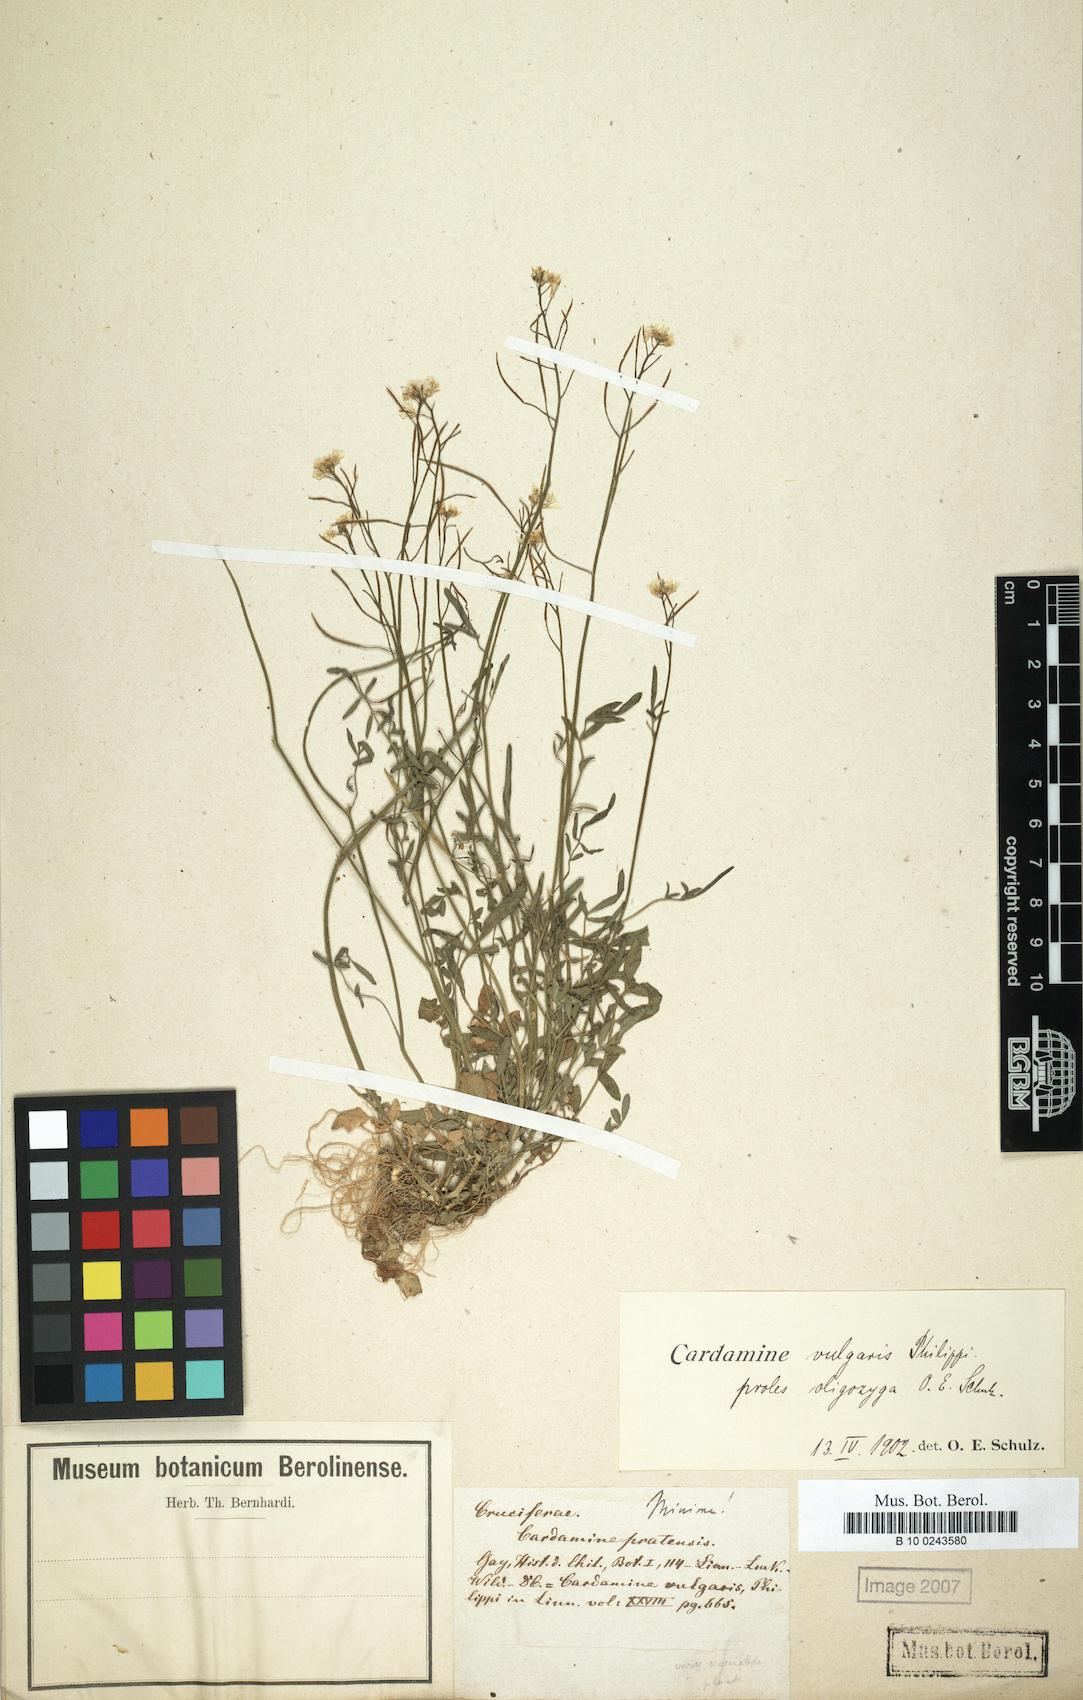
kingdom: Plantae
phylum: Tracheophyta
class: Magnoliopsida
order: Brassicales
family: Brassicaceae
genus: Cardamine
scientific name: Cardamine vulgaris
